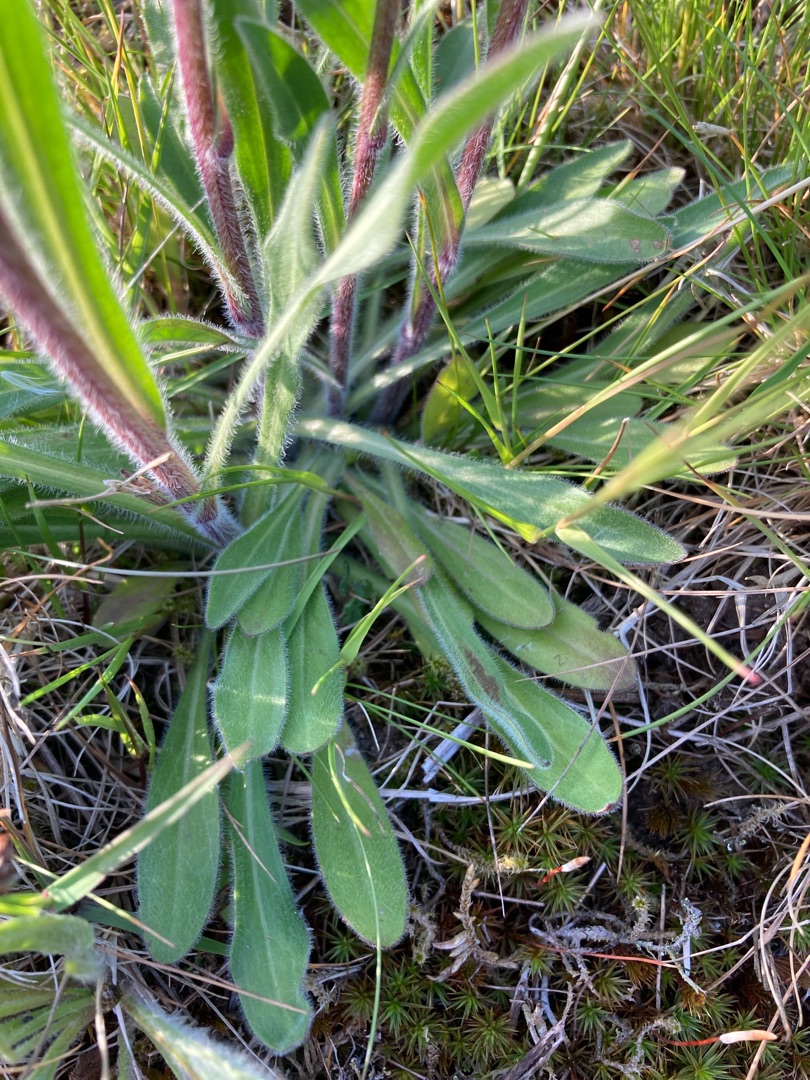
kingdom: Plantae
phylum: Tracheophyta
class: Magnoliopsida
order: Asterales
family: Asteraceae
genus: Erigeron
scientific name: Erigeron acris
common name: Bitter bakkestjerne
